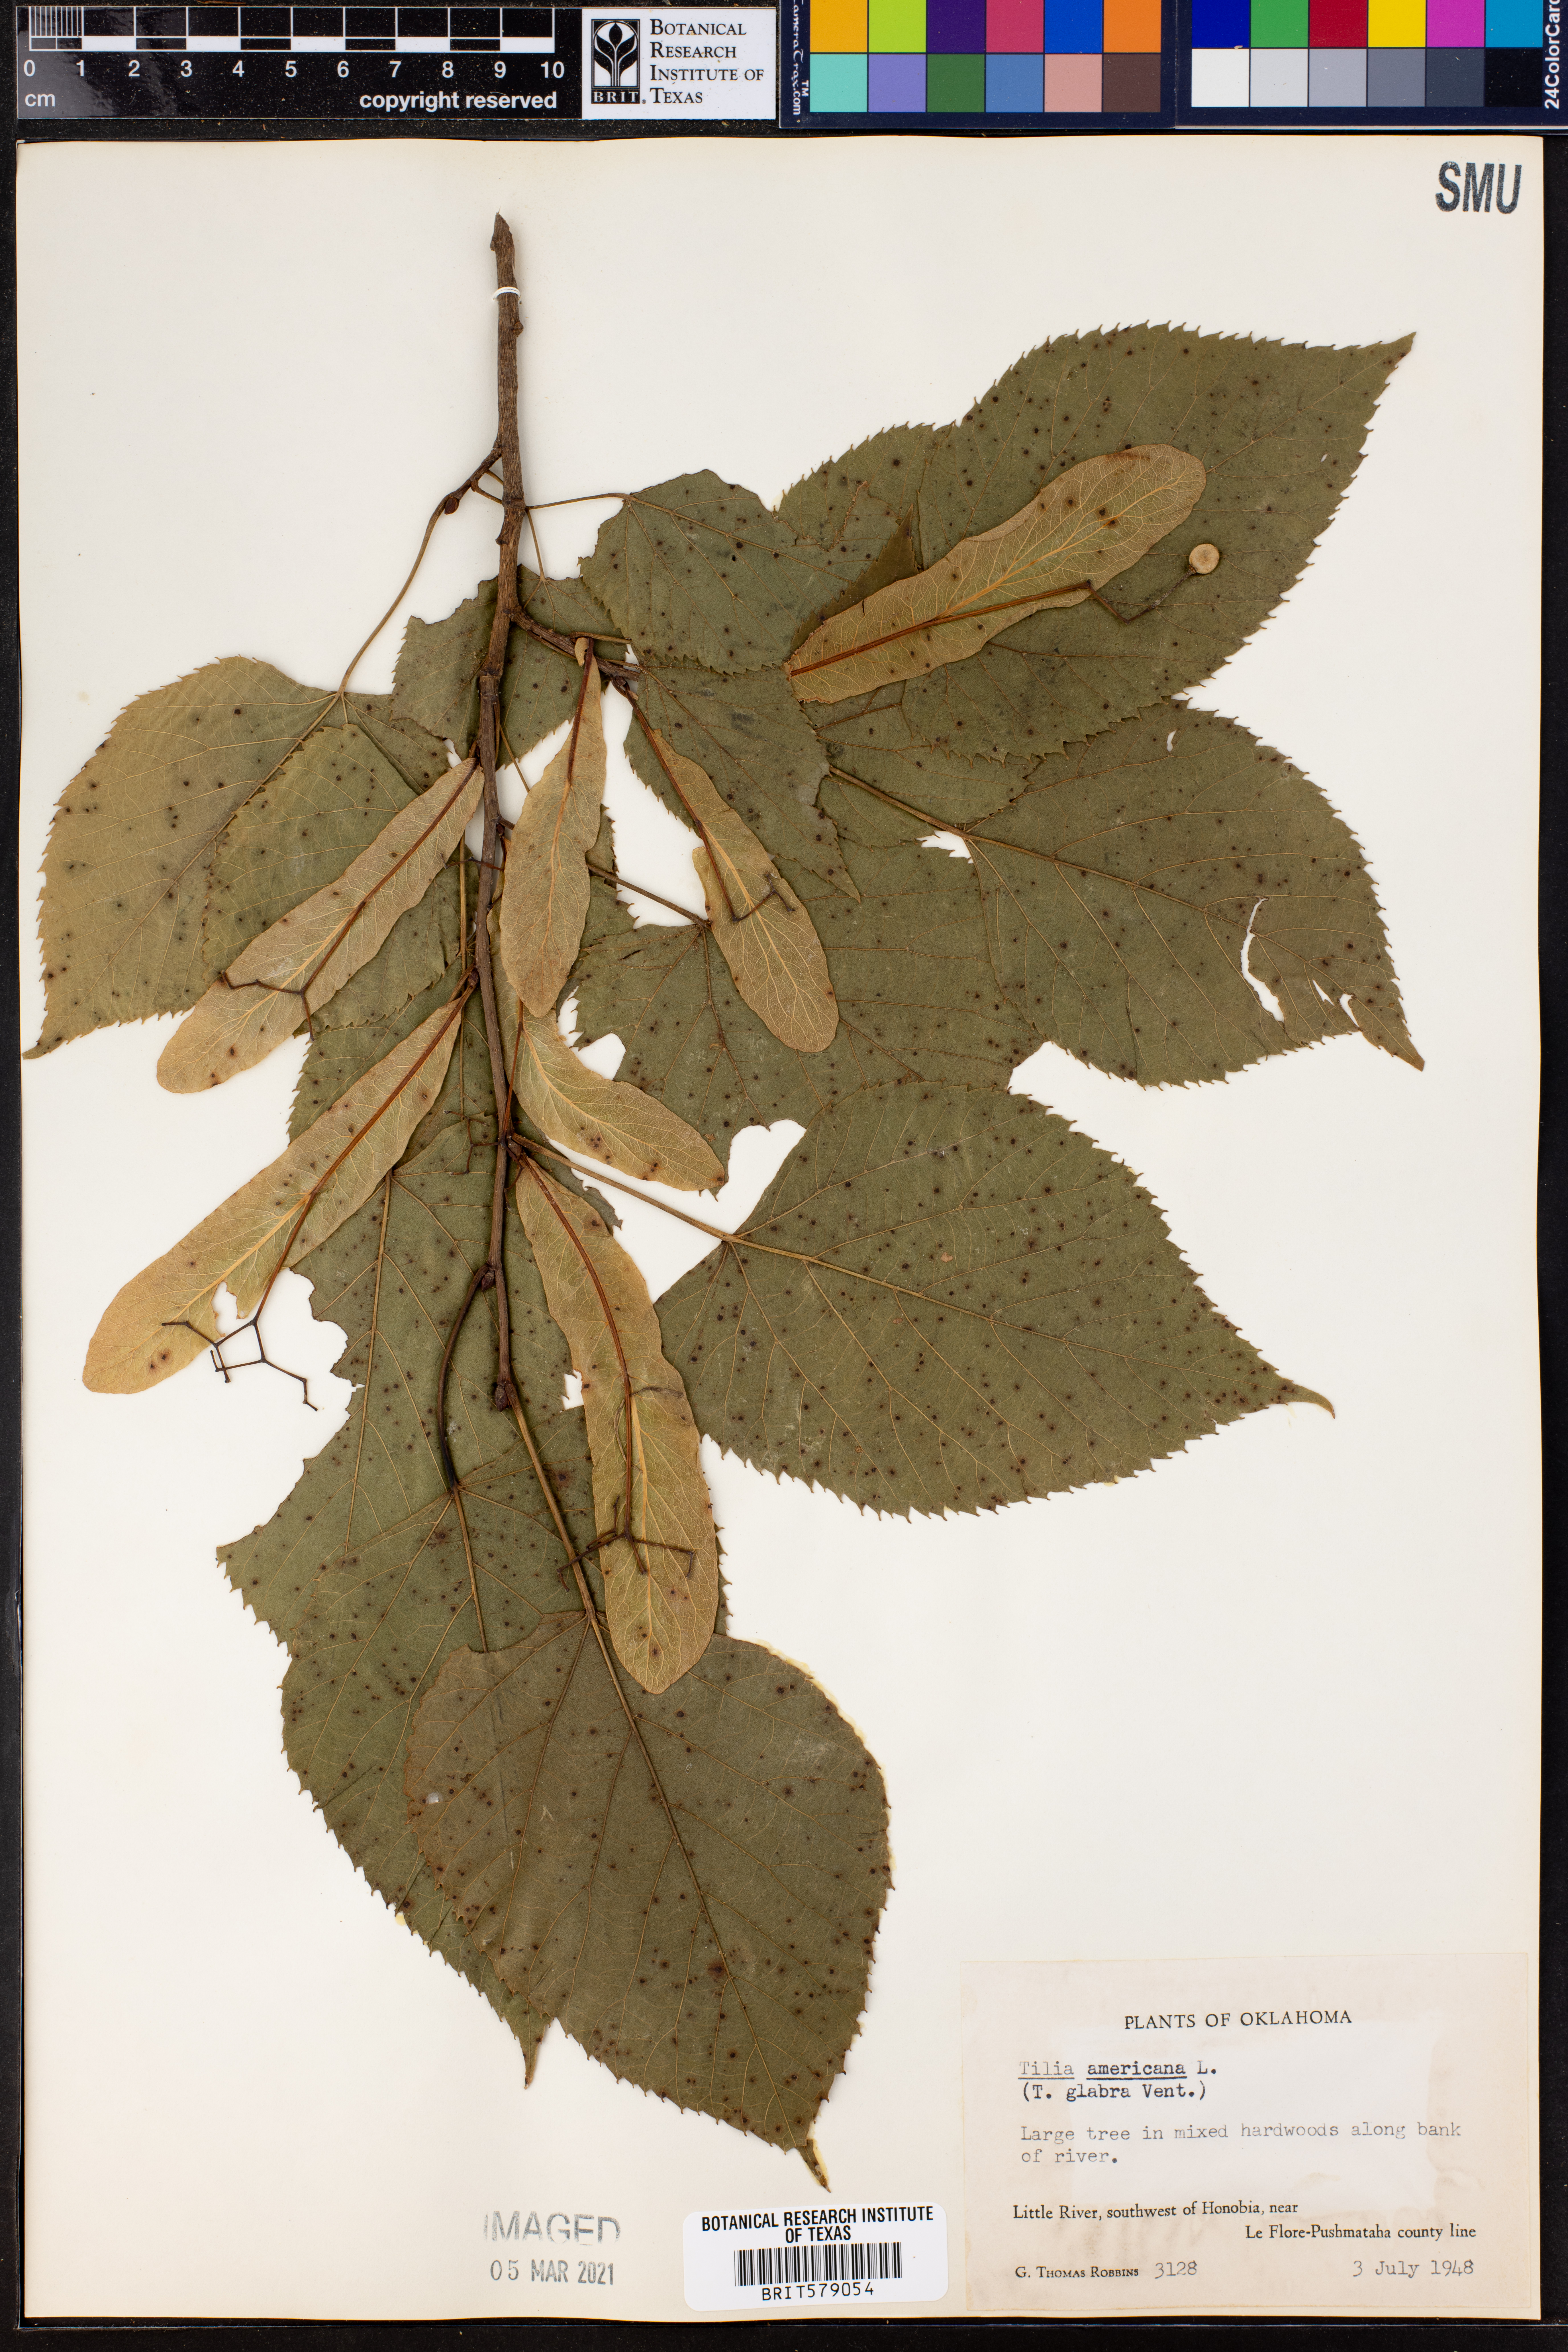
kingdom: Plantae
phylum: Tracheophyta
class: Magnoliopsida
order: Malvales
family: Malvaceae
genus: Tilia
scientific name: Tilia americana
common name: Basswood
